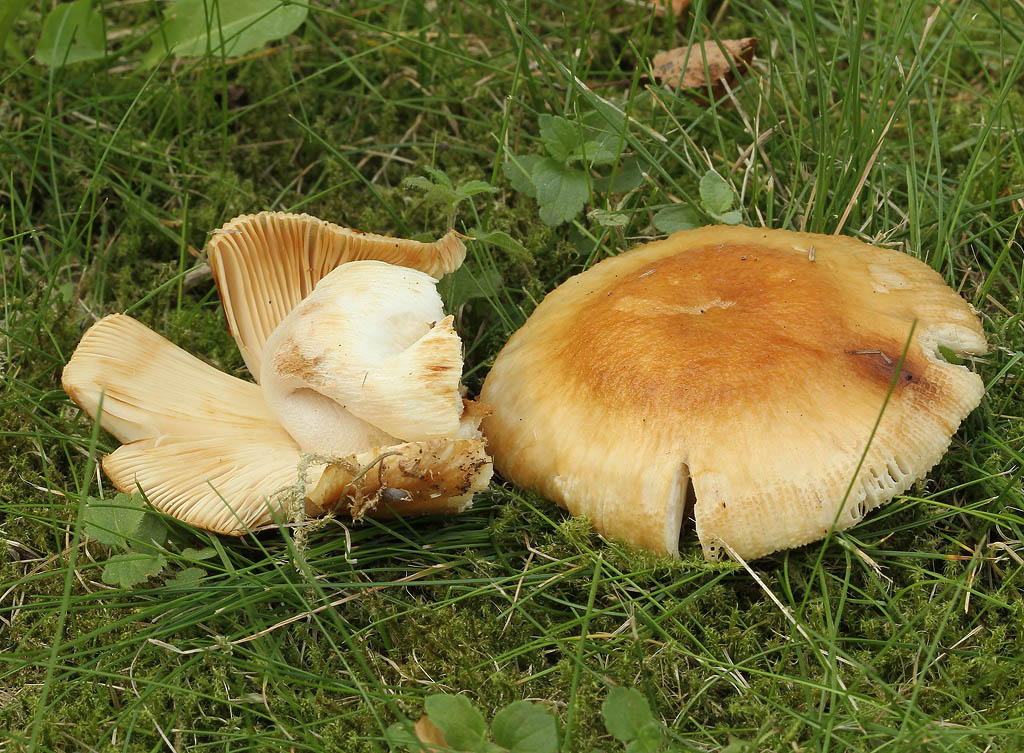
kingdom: Fungi
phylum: Basidiomycota
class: Agaricomycetes
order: Russulales
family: Russulaceae
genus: Russula
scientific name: Russula subfoetens
